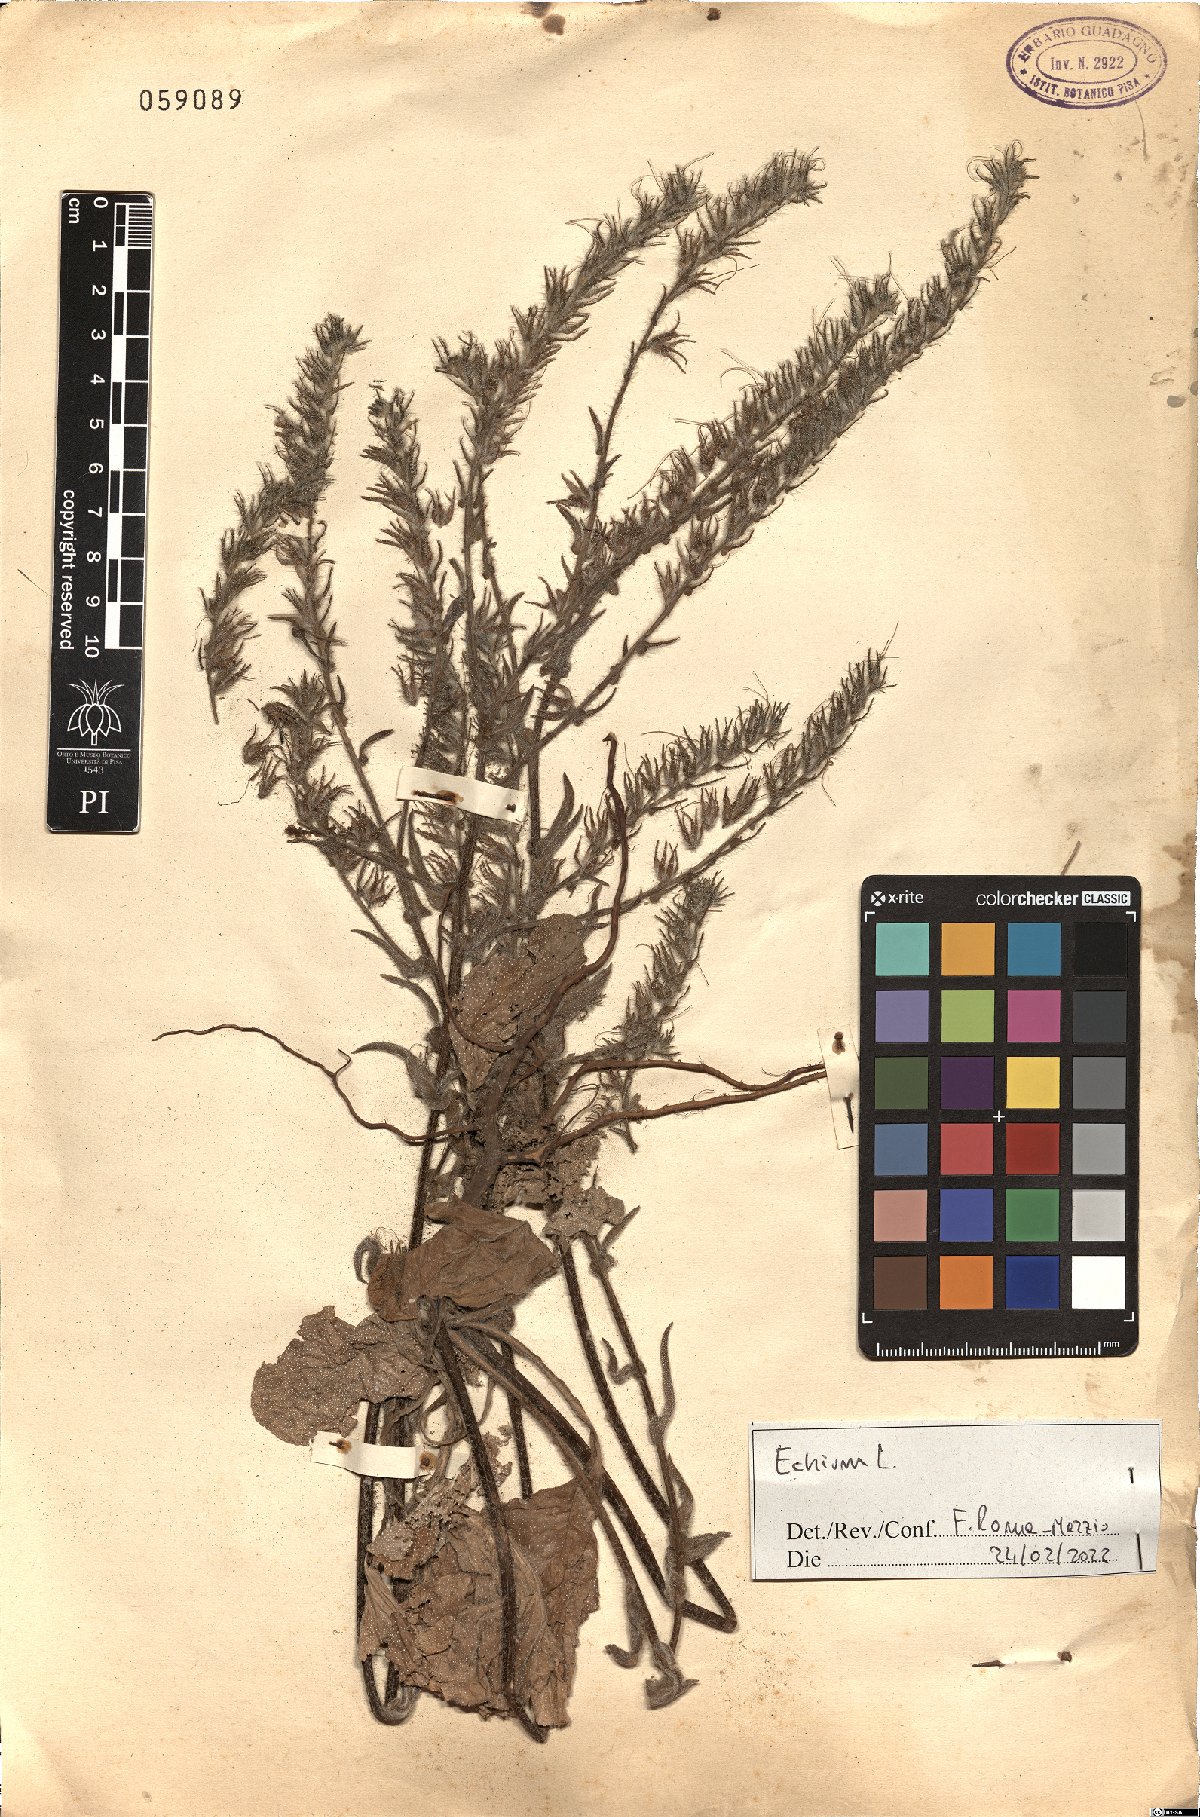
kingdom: Plantae
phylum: Tracheophyta
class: Magnoliopsida
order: Boraginales
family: Boraginaceae
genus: Echium
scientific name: Echium
